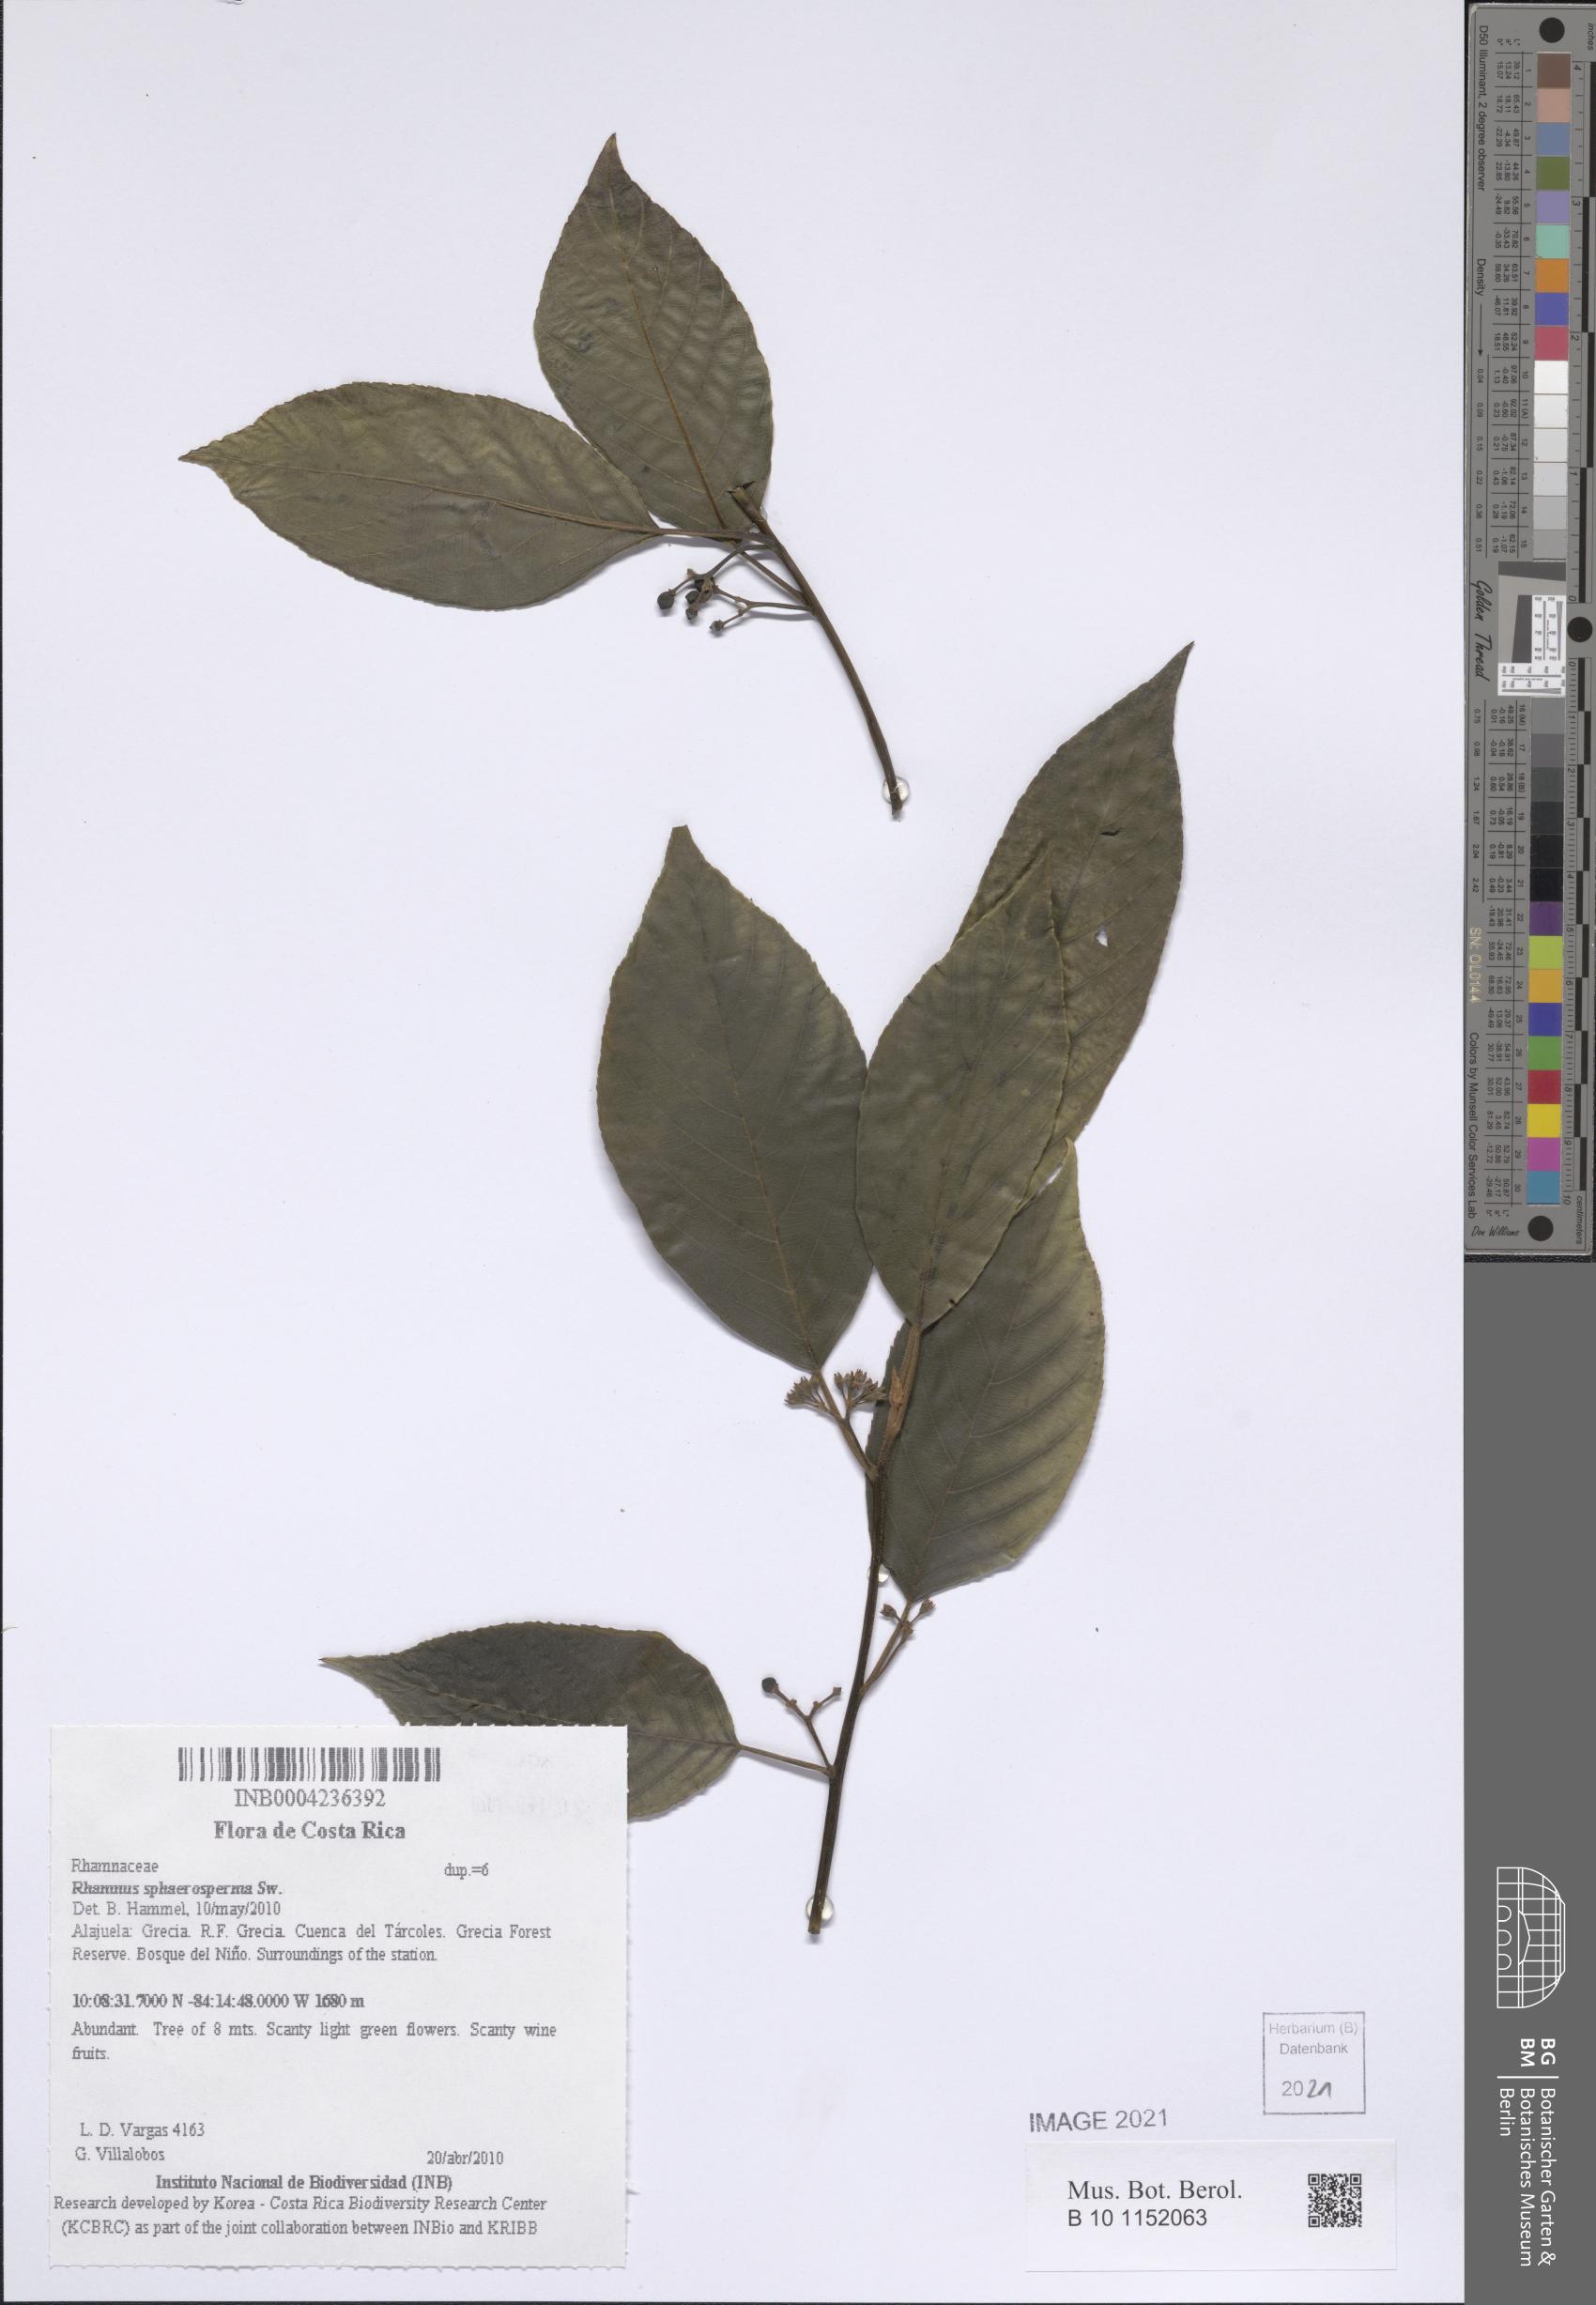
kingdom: Plantae
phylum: Tracheophyta
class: Magnoliopsida
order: Rosales
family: Rhamnaceae
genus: Frangula
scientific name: Frangula pendula
